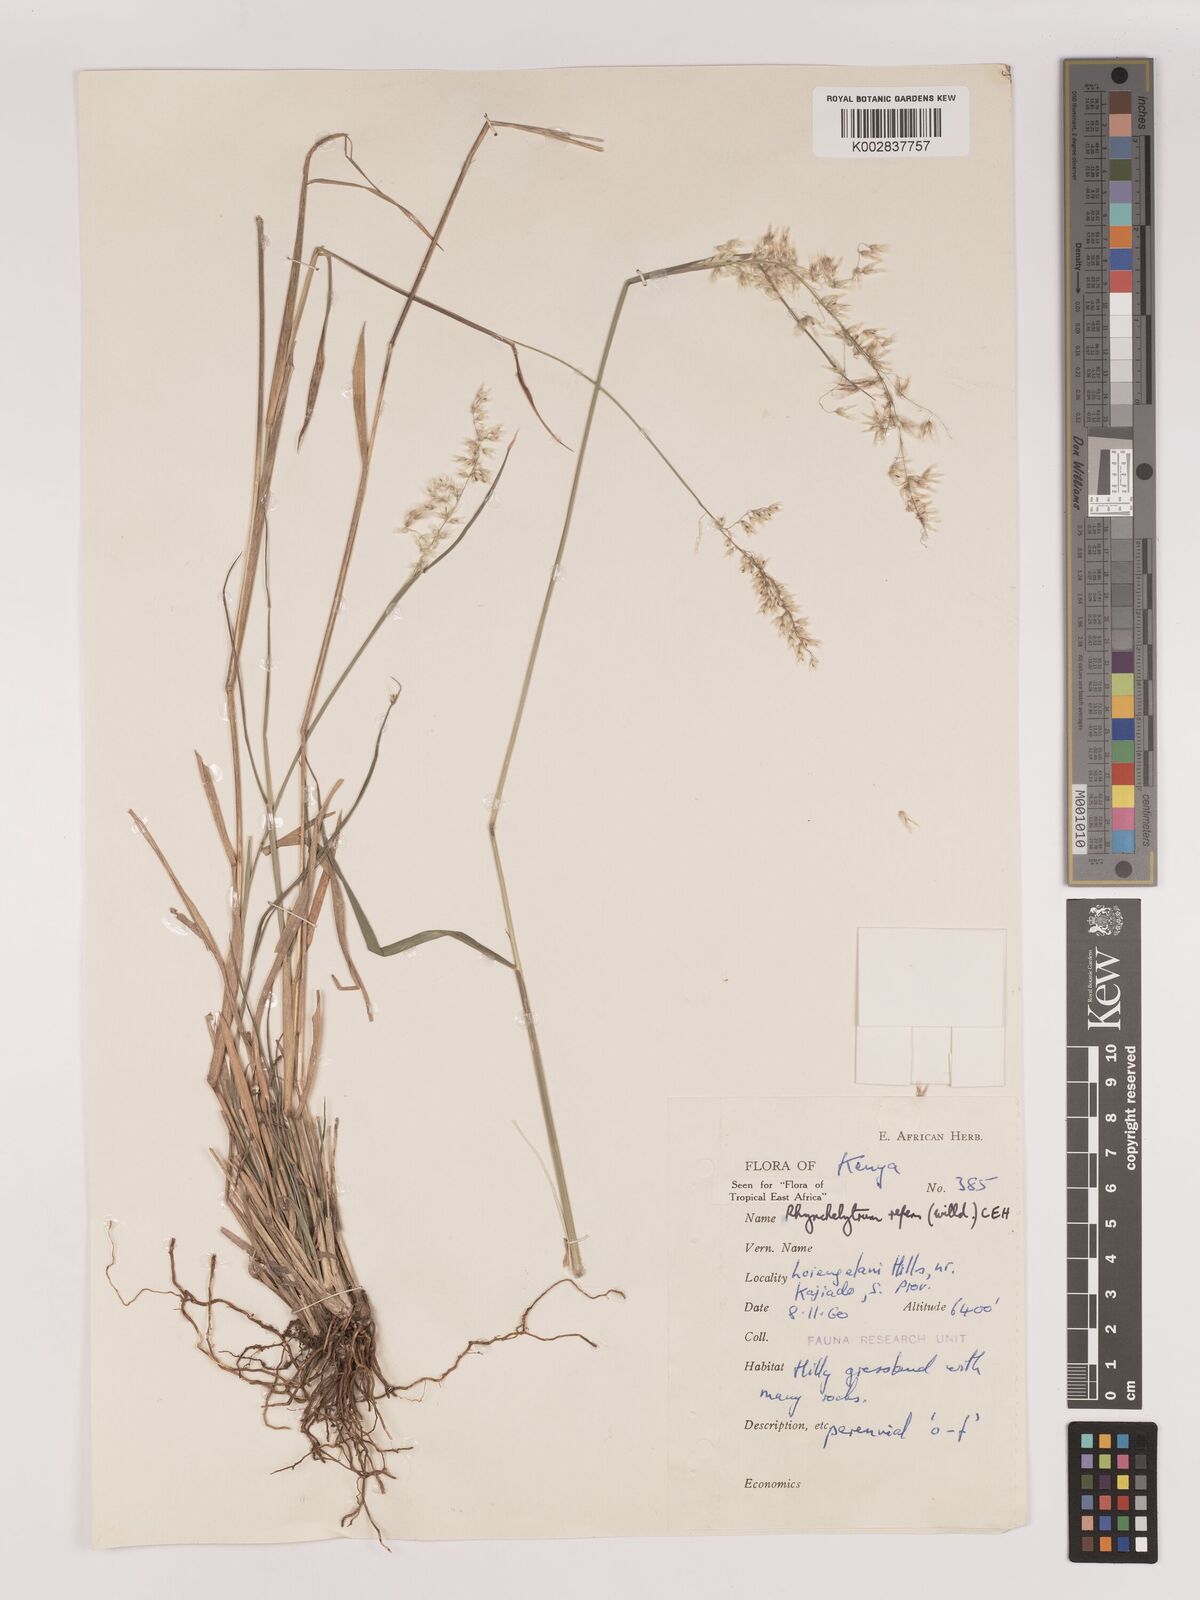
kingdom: Plantae
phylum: Tracheophyta
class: Liliopsida
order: Poales
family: Poaceae
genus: Melinis
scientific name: Melinis repens
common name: Rose natal grass
